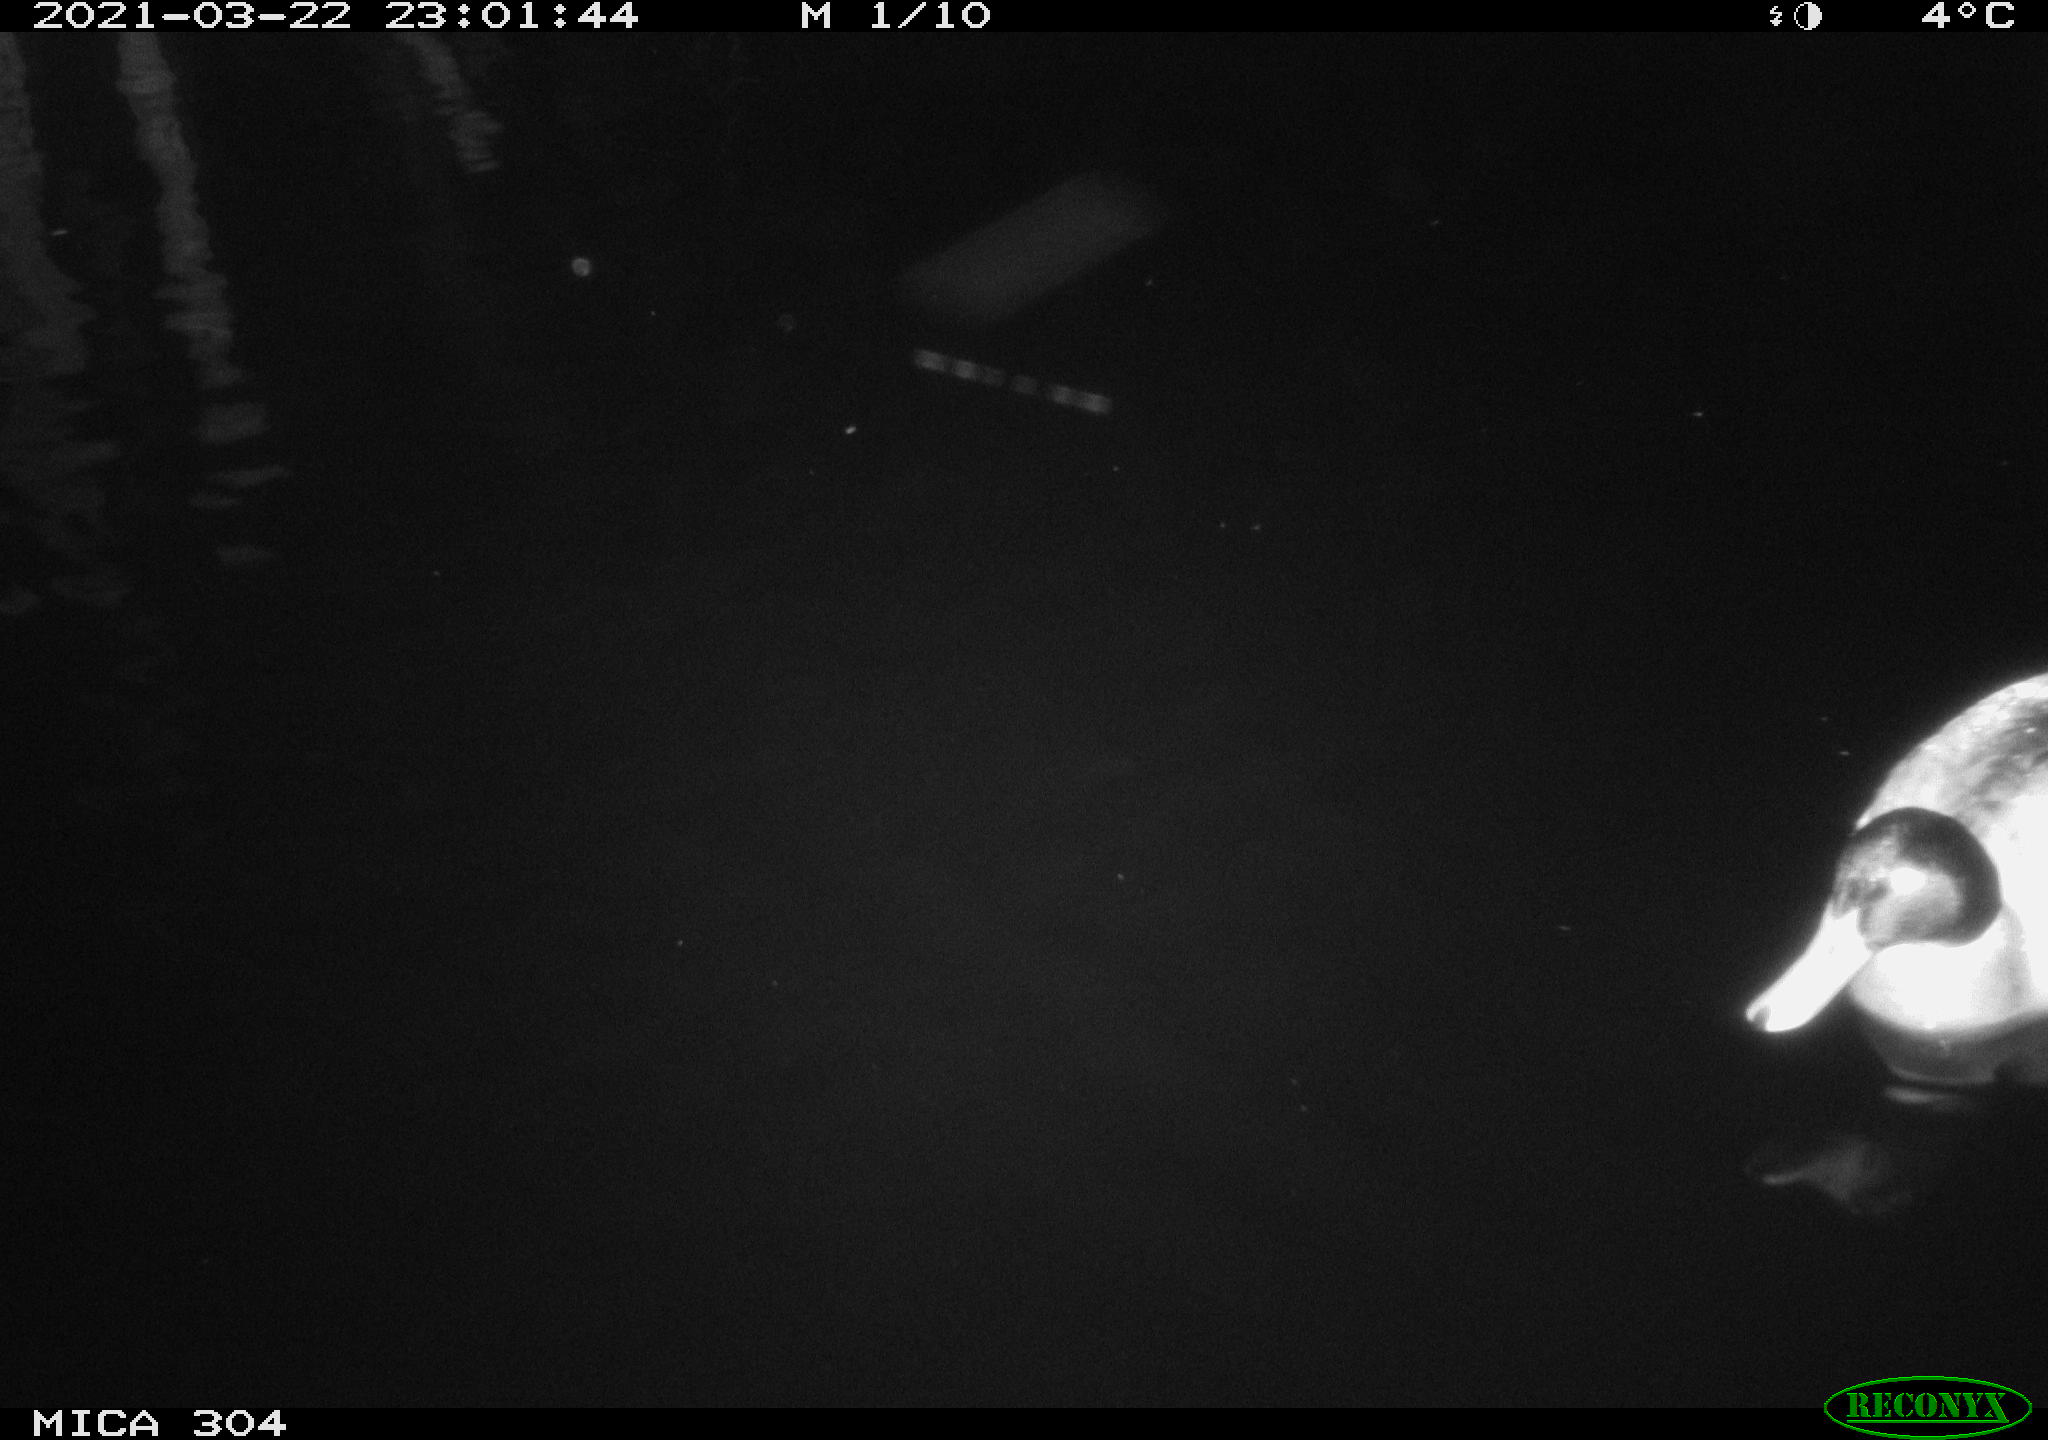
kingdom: Animalia
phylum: Chordata
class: Aves
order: Anseriformes
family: Anatidae
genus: Anas
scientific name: Anas platyrhynchos
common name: Mallard
